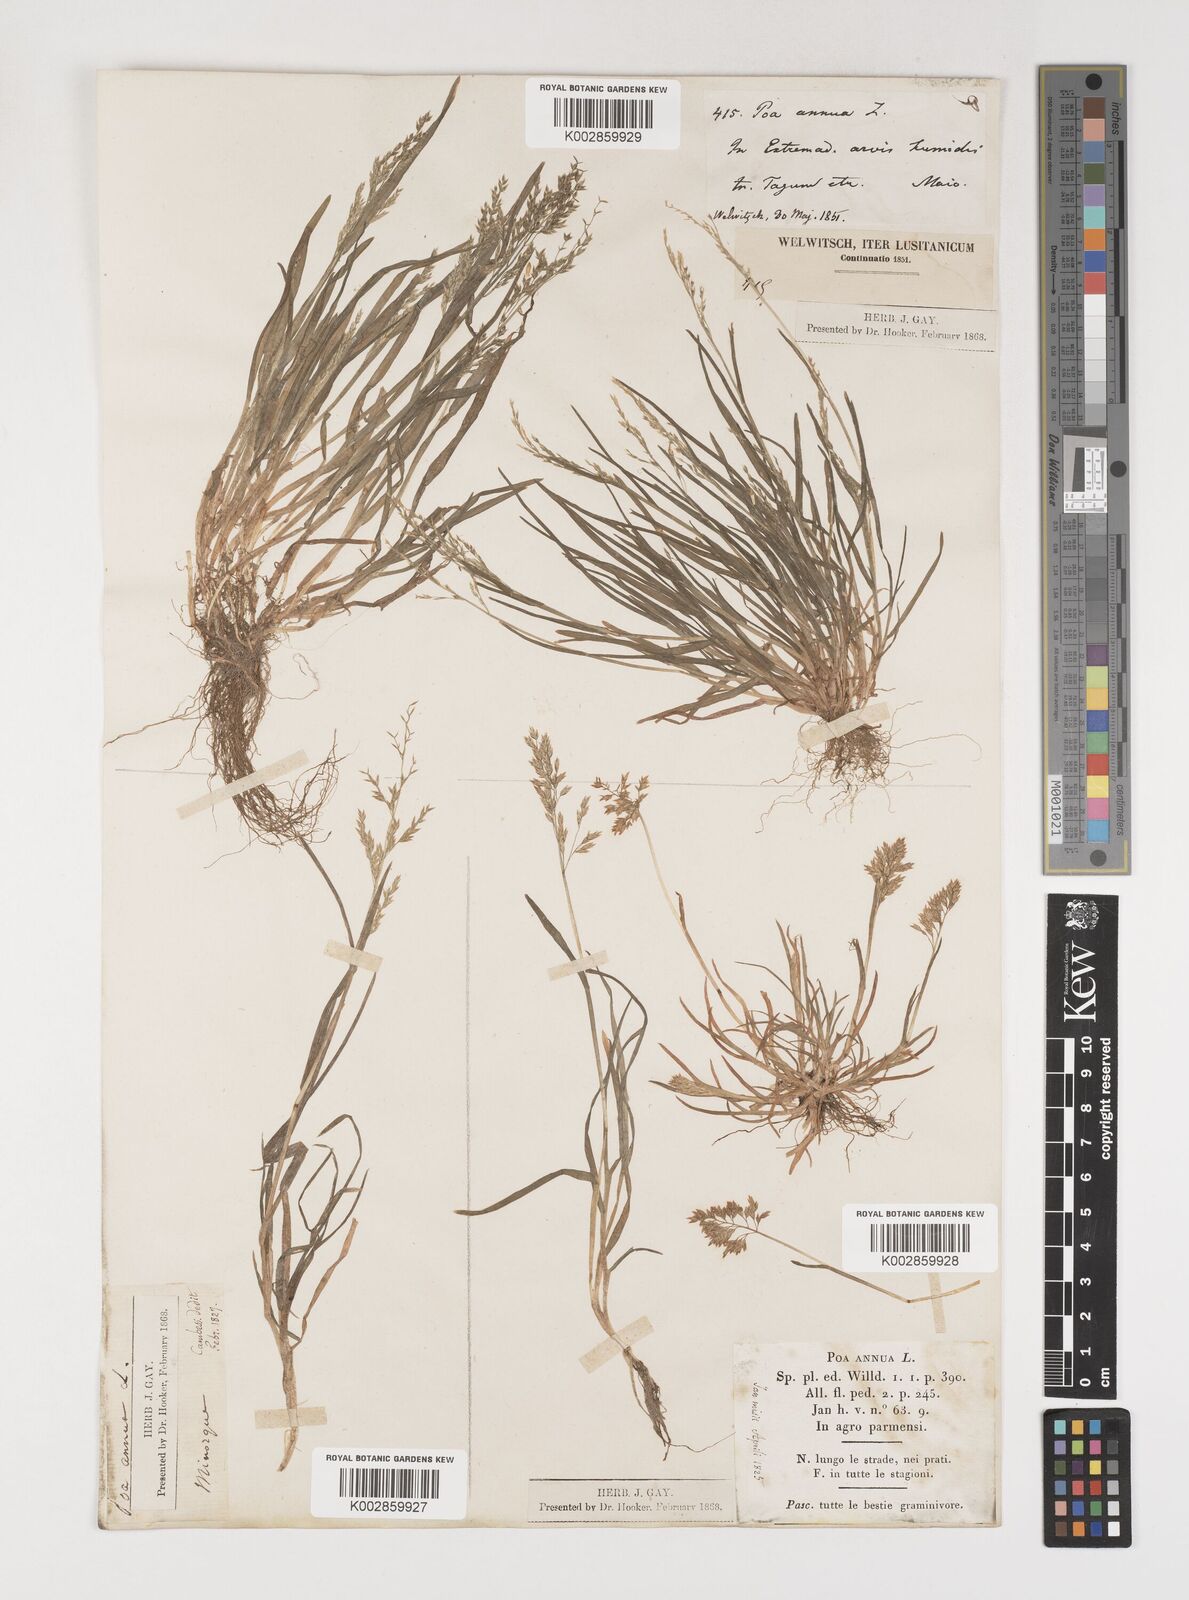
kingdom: Plantae
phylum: Tracheophyta
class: Liliopsida
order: Poales
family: Poaceae
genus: Poa
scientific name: Poa annua
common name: Annual bluegrass
